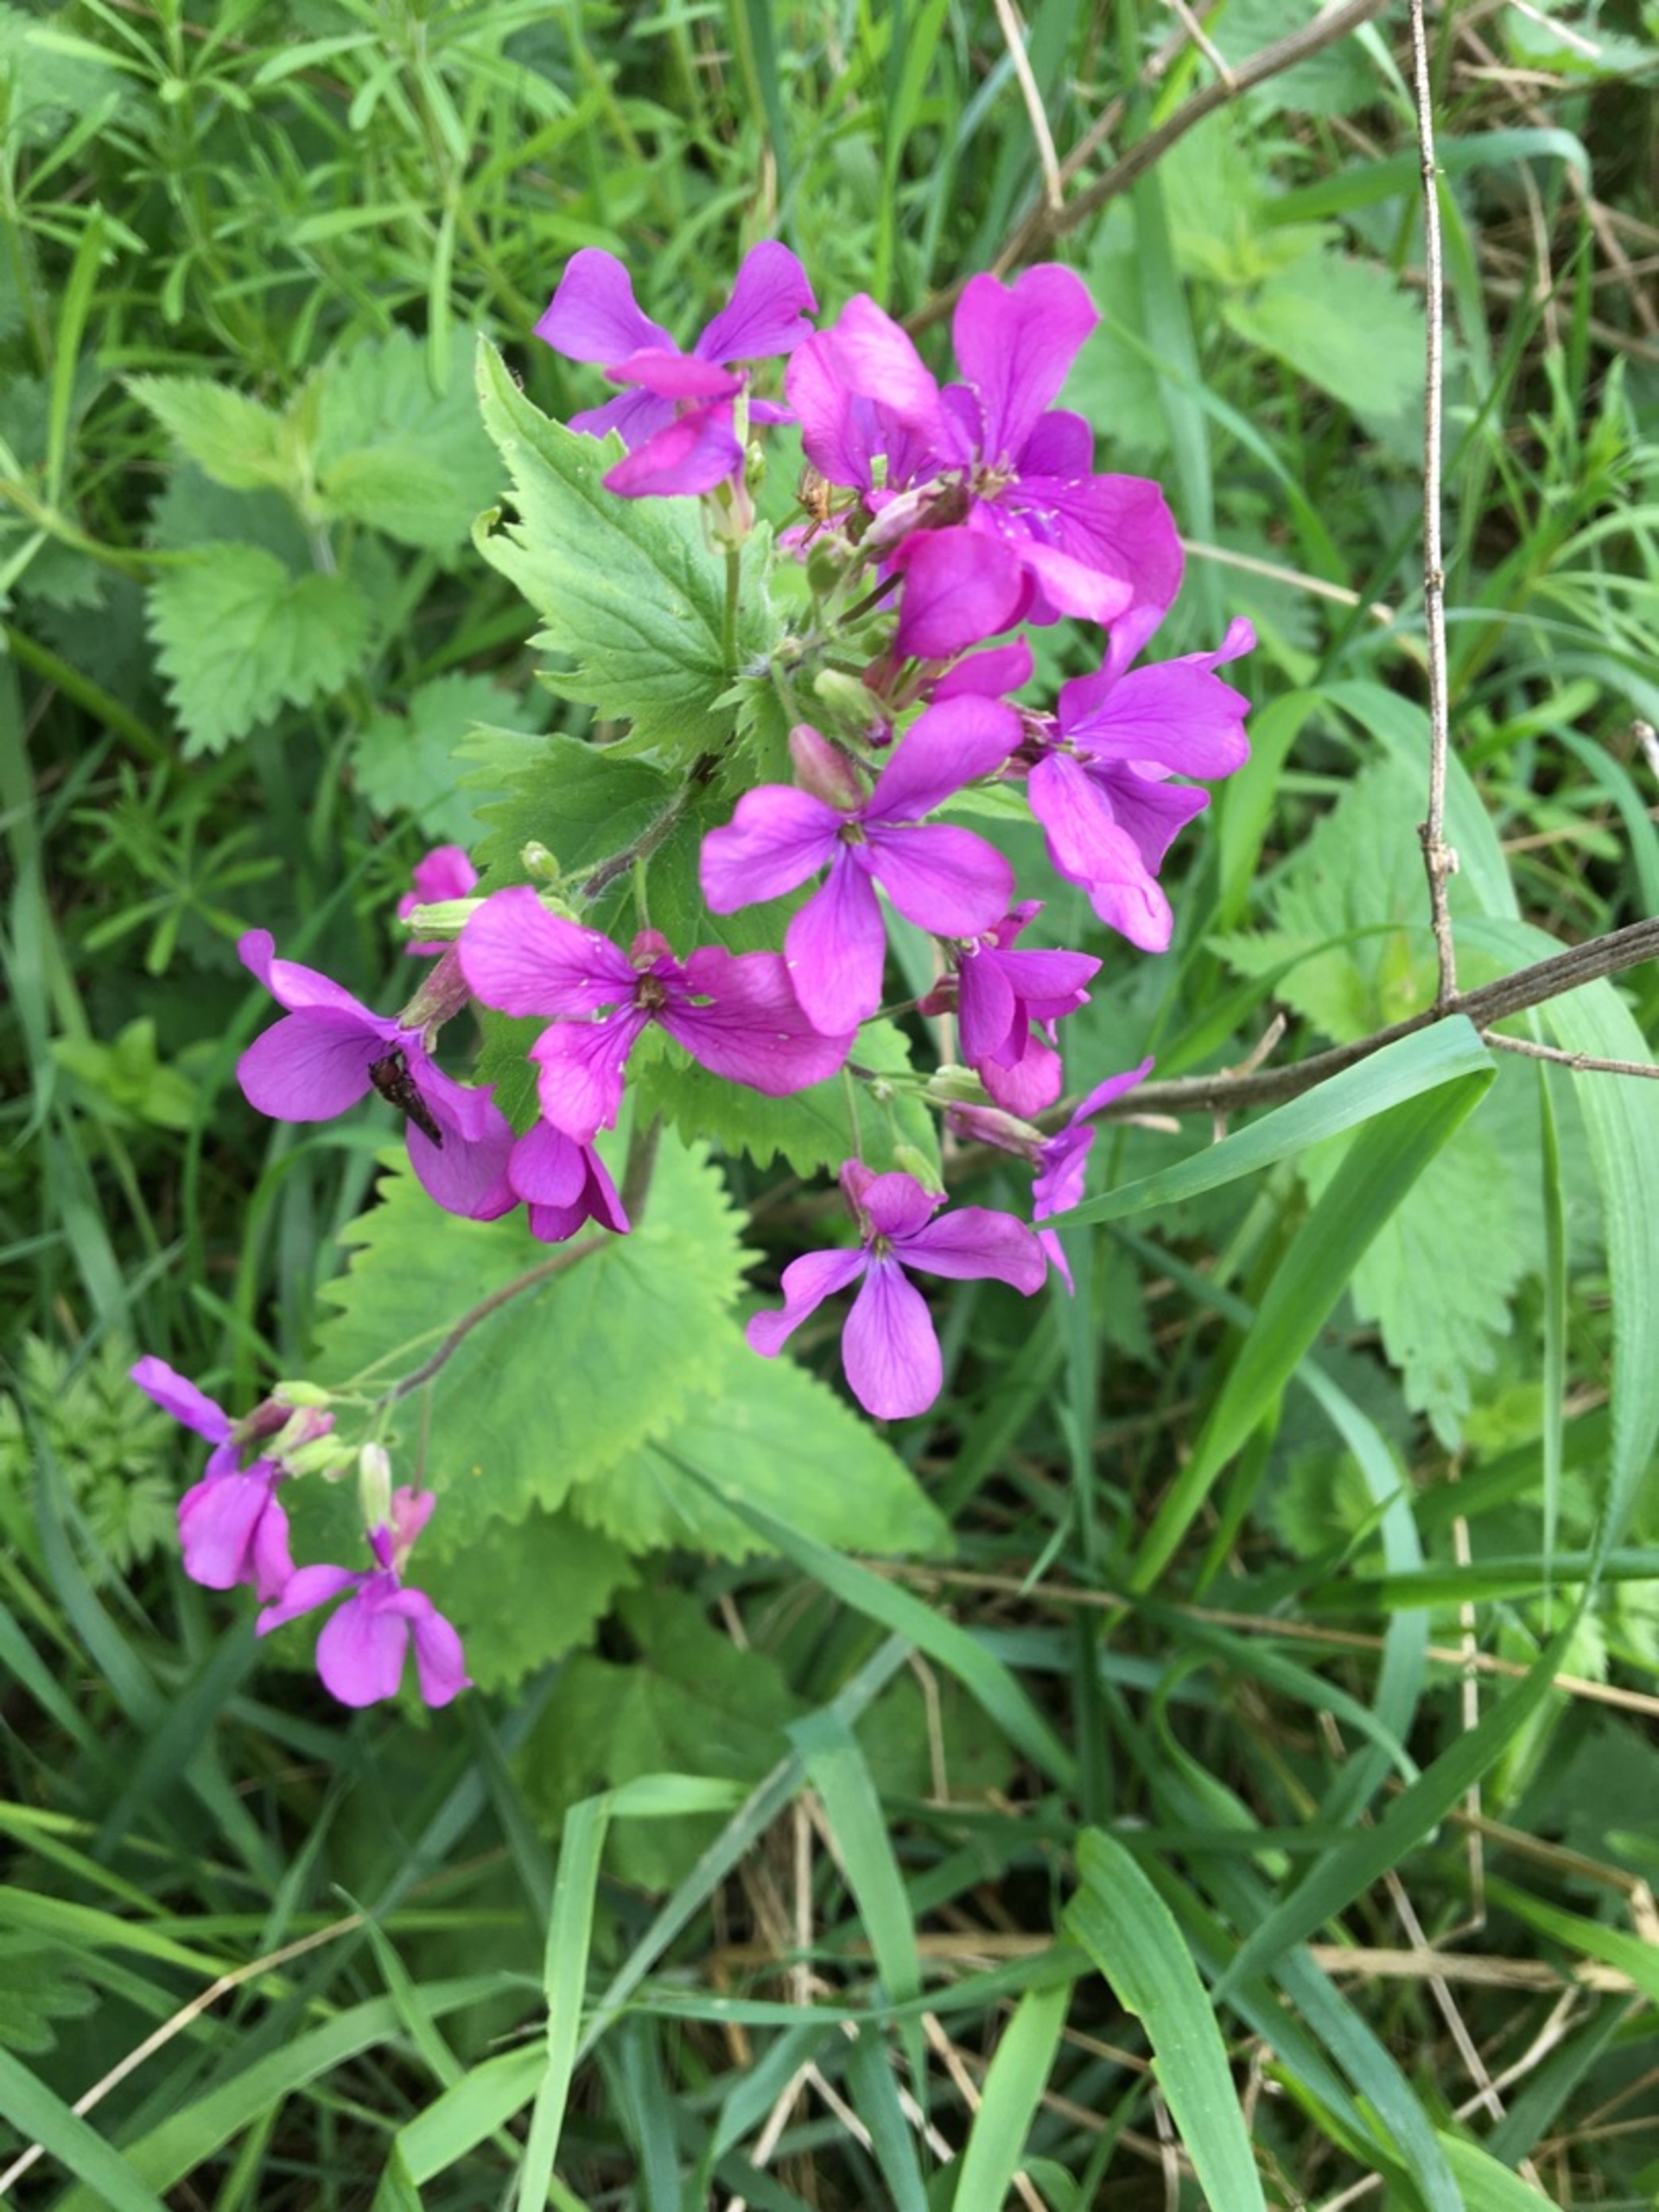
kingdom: Plantae
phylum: Tracheophyta
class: Magnoliopsida
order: Brassicales
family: Brassicaceae
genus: Lunaria
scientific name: Lunaria annua
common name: Judaspenge
